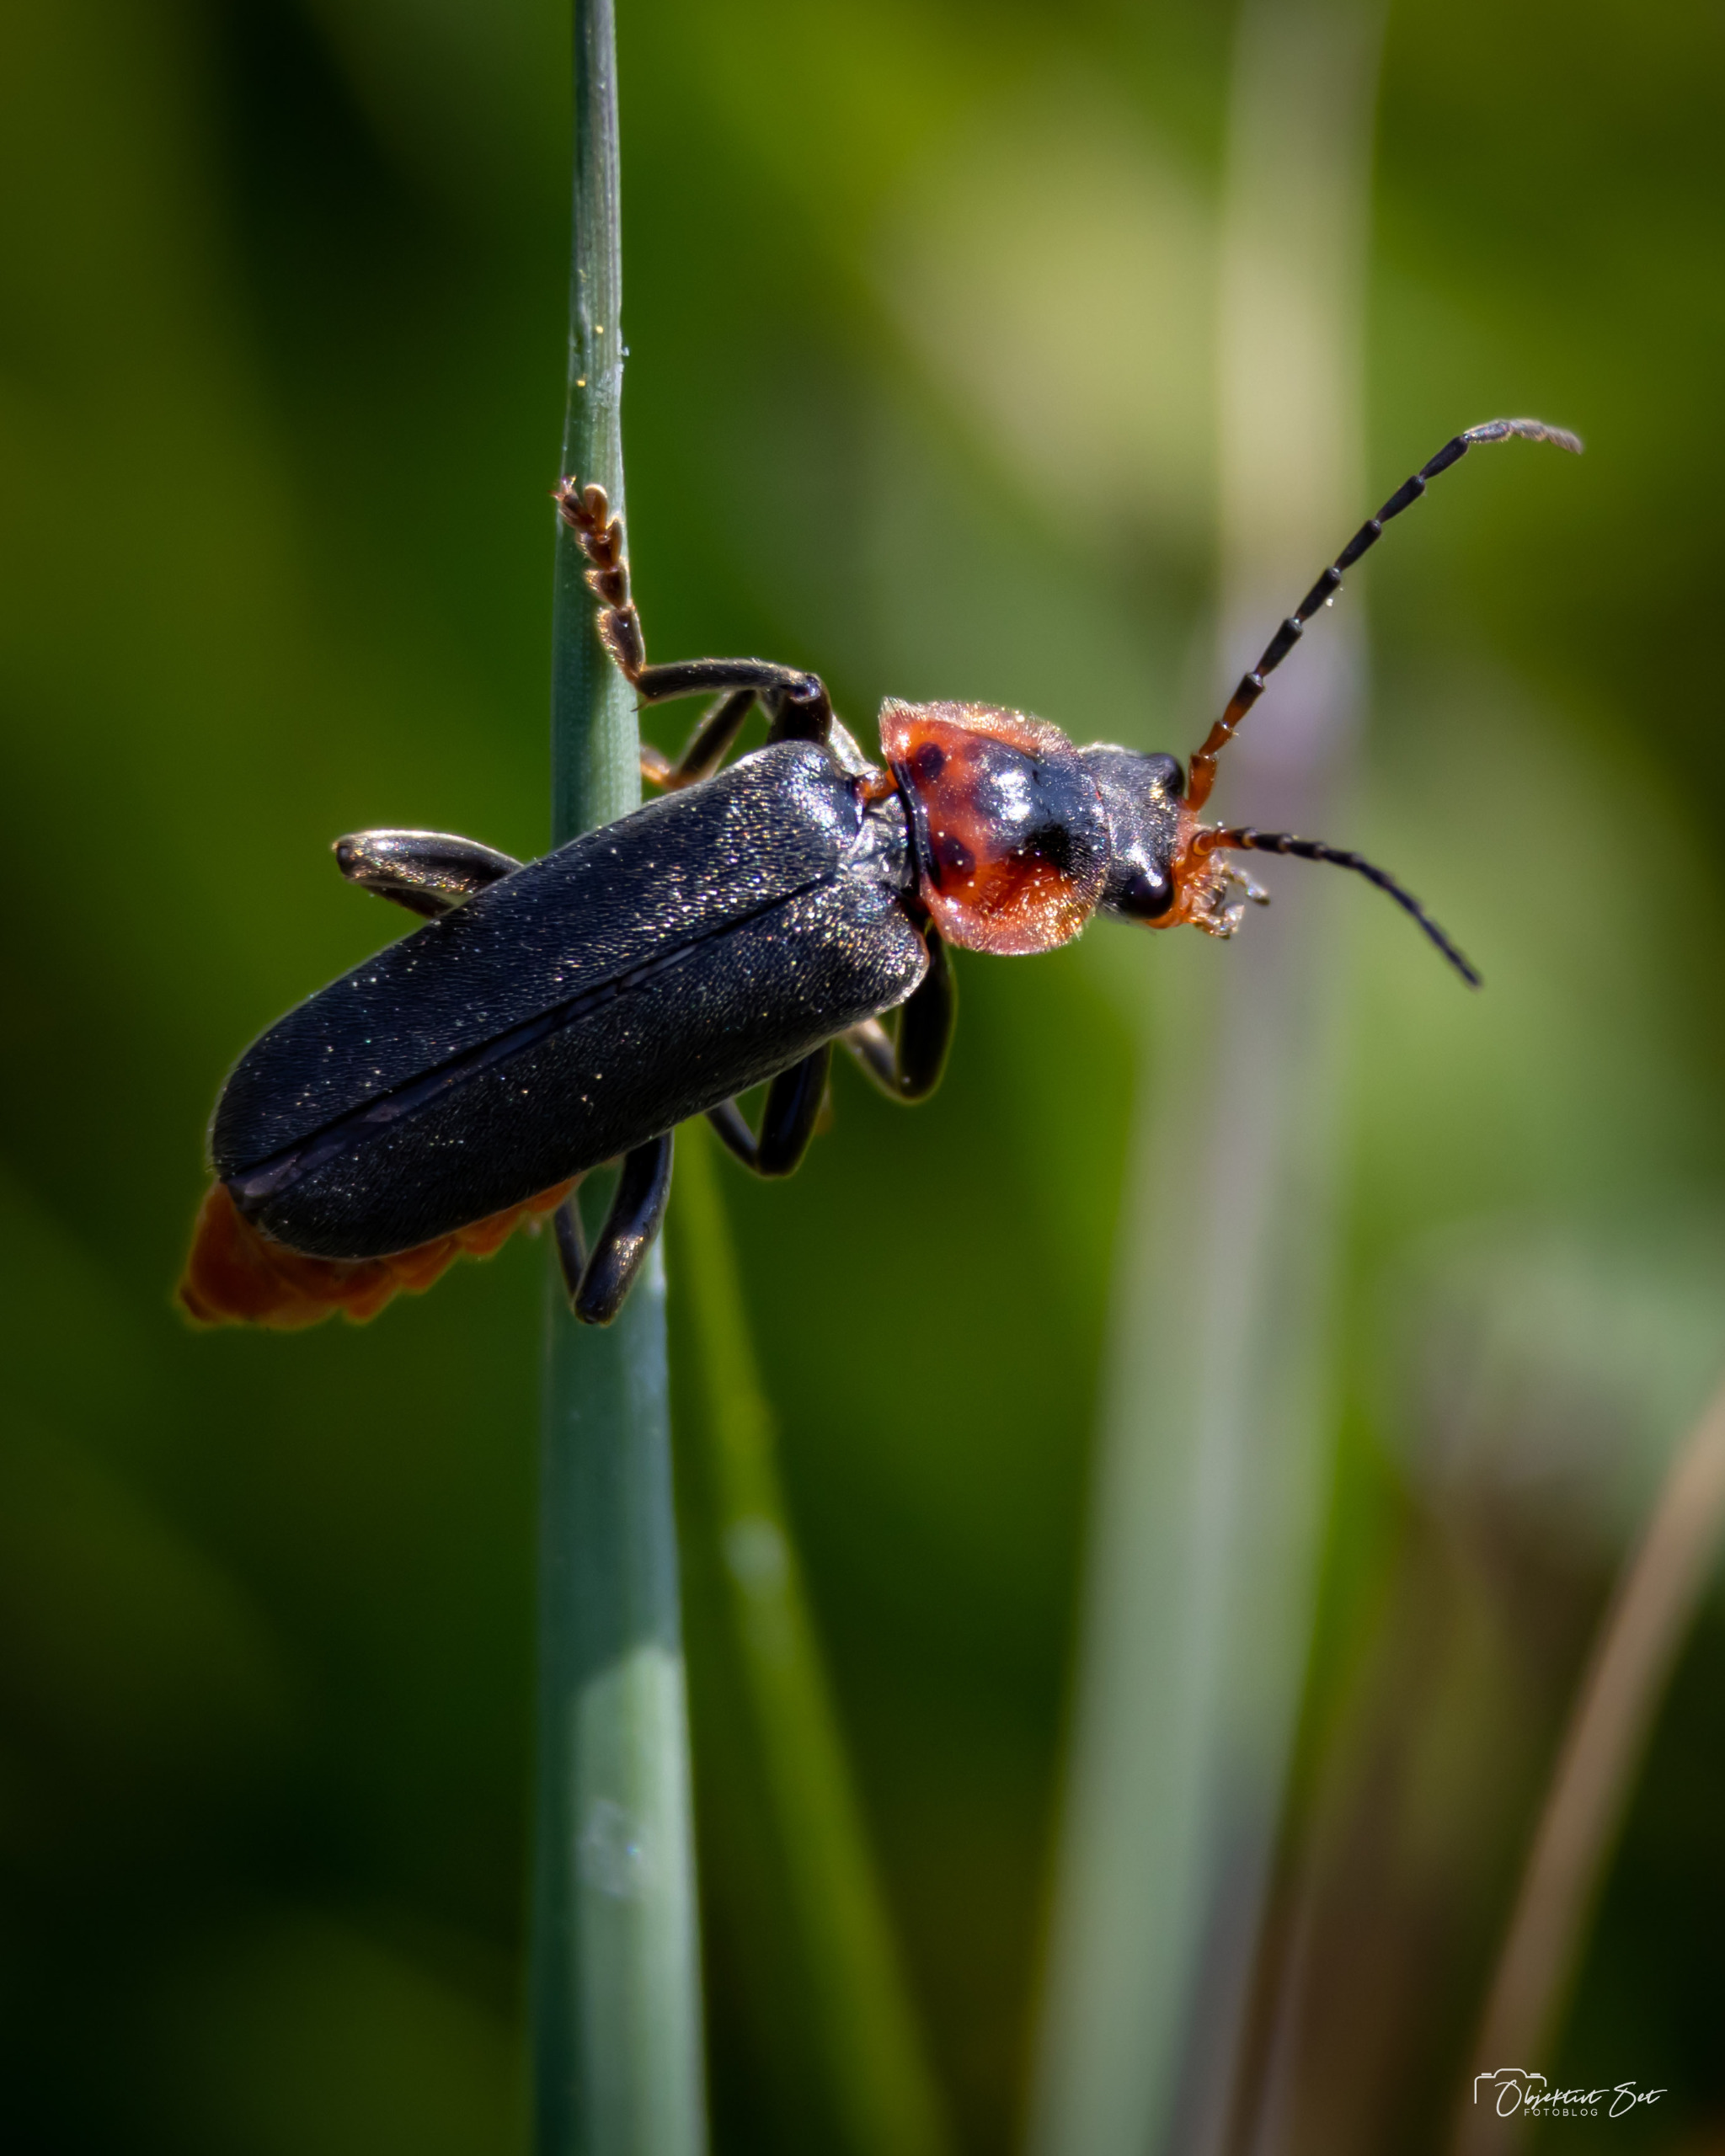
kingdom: Animalia
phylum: Arthropoda
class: Insecta
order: Coleoptera
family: Cantharidae
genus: Cantharis
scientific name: Cantharis fusca
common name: Stor blødvinge
